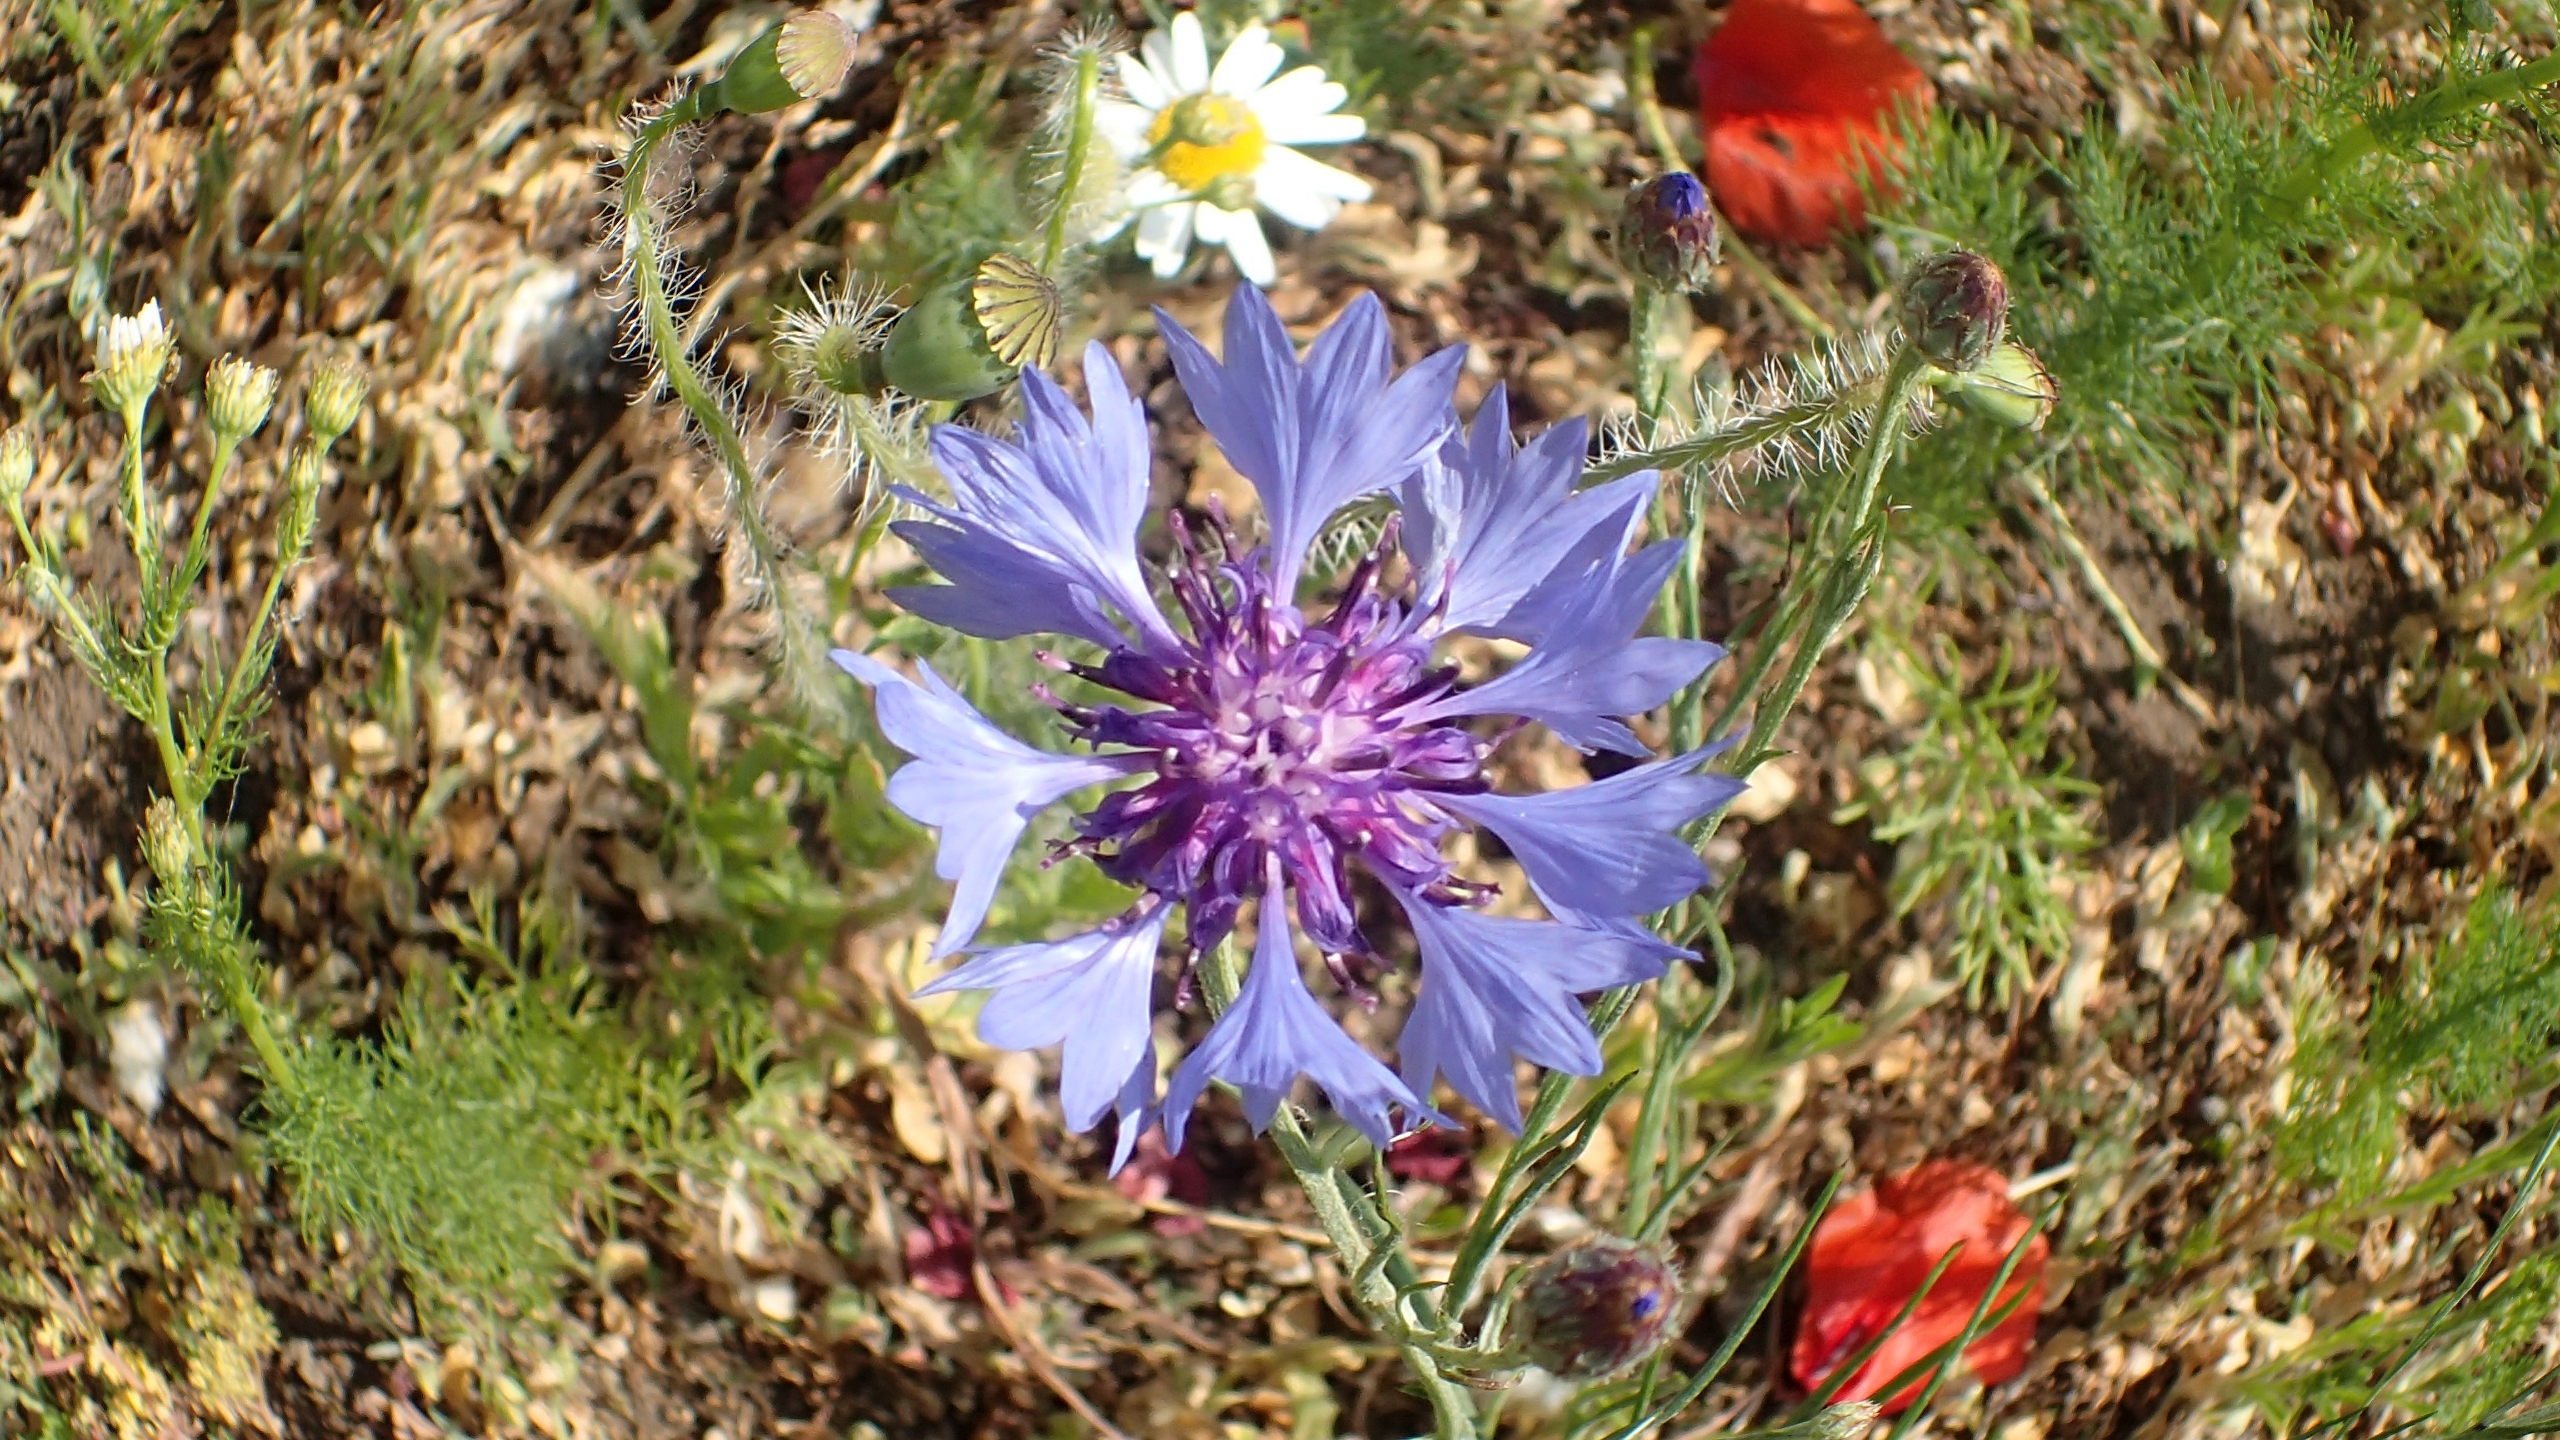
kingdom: Plantae
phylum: Tracheophyta
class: Magnoliopsida
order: Asterales
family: Asteraceae
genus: Centaurea
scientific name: Centaurea cyanus
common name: Kornblomst
